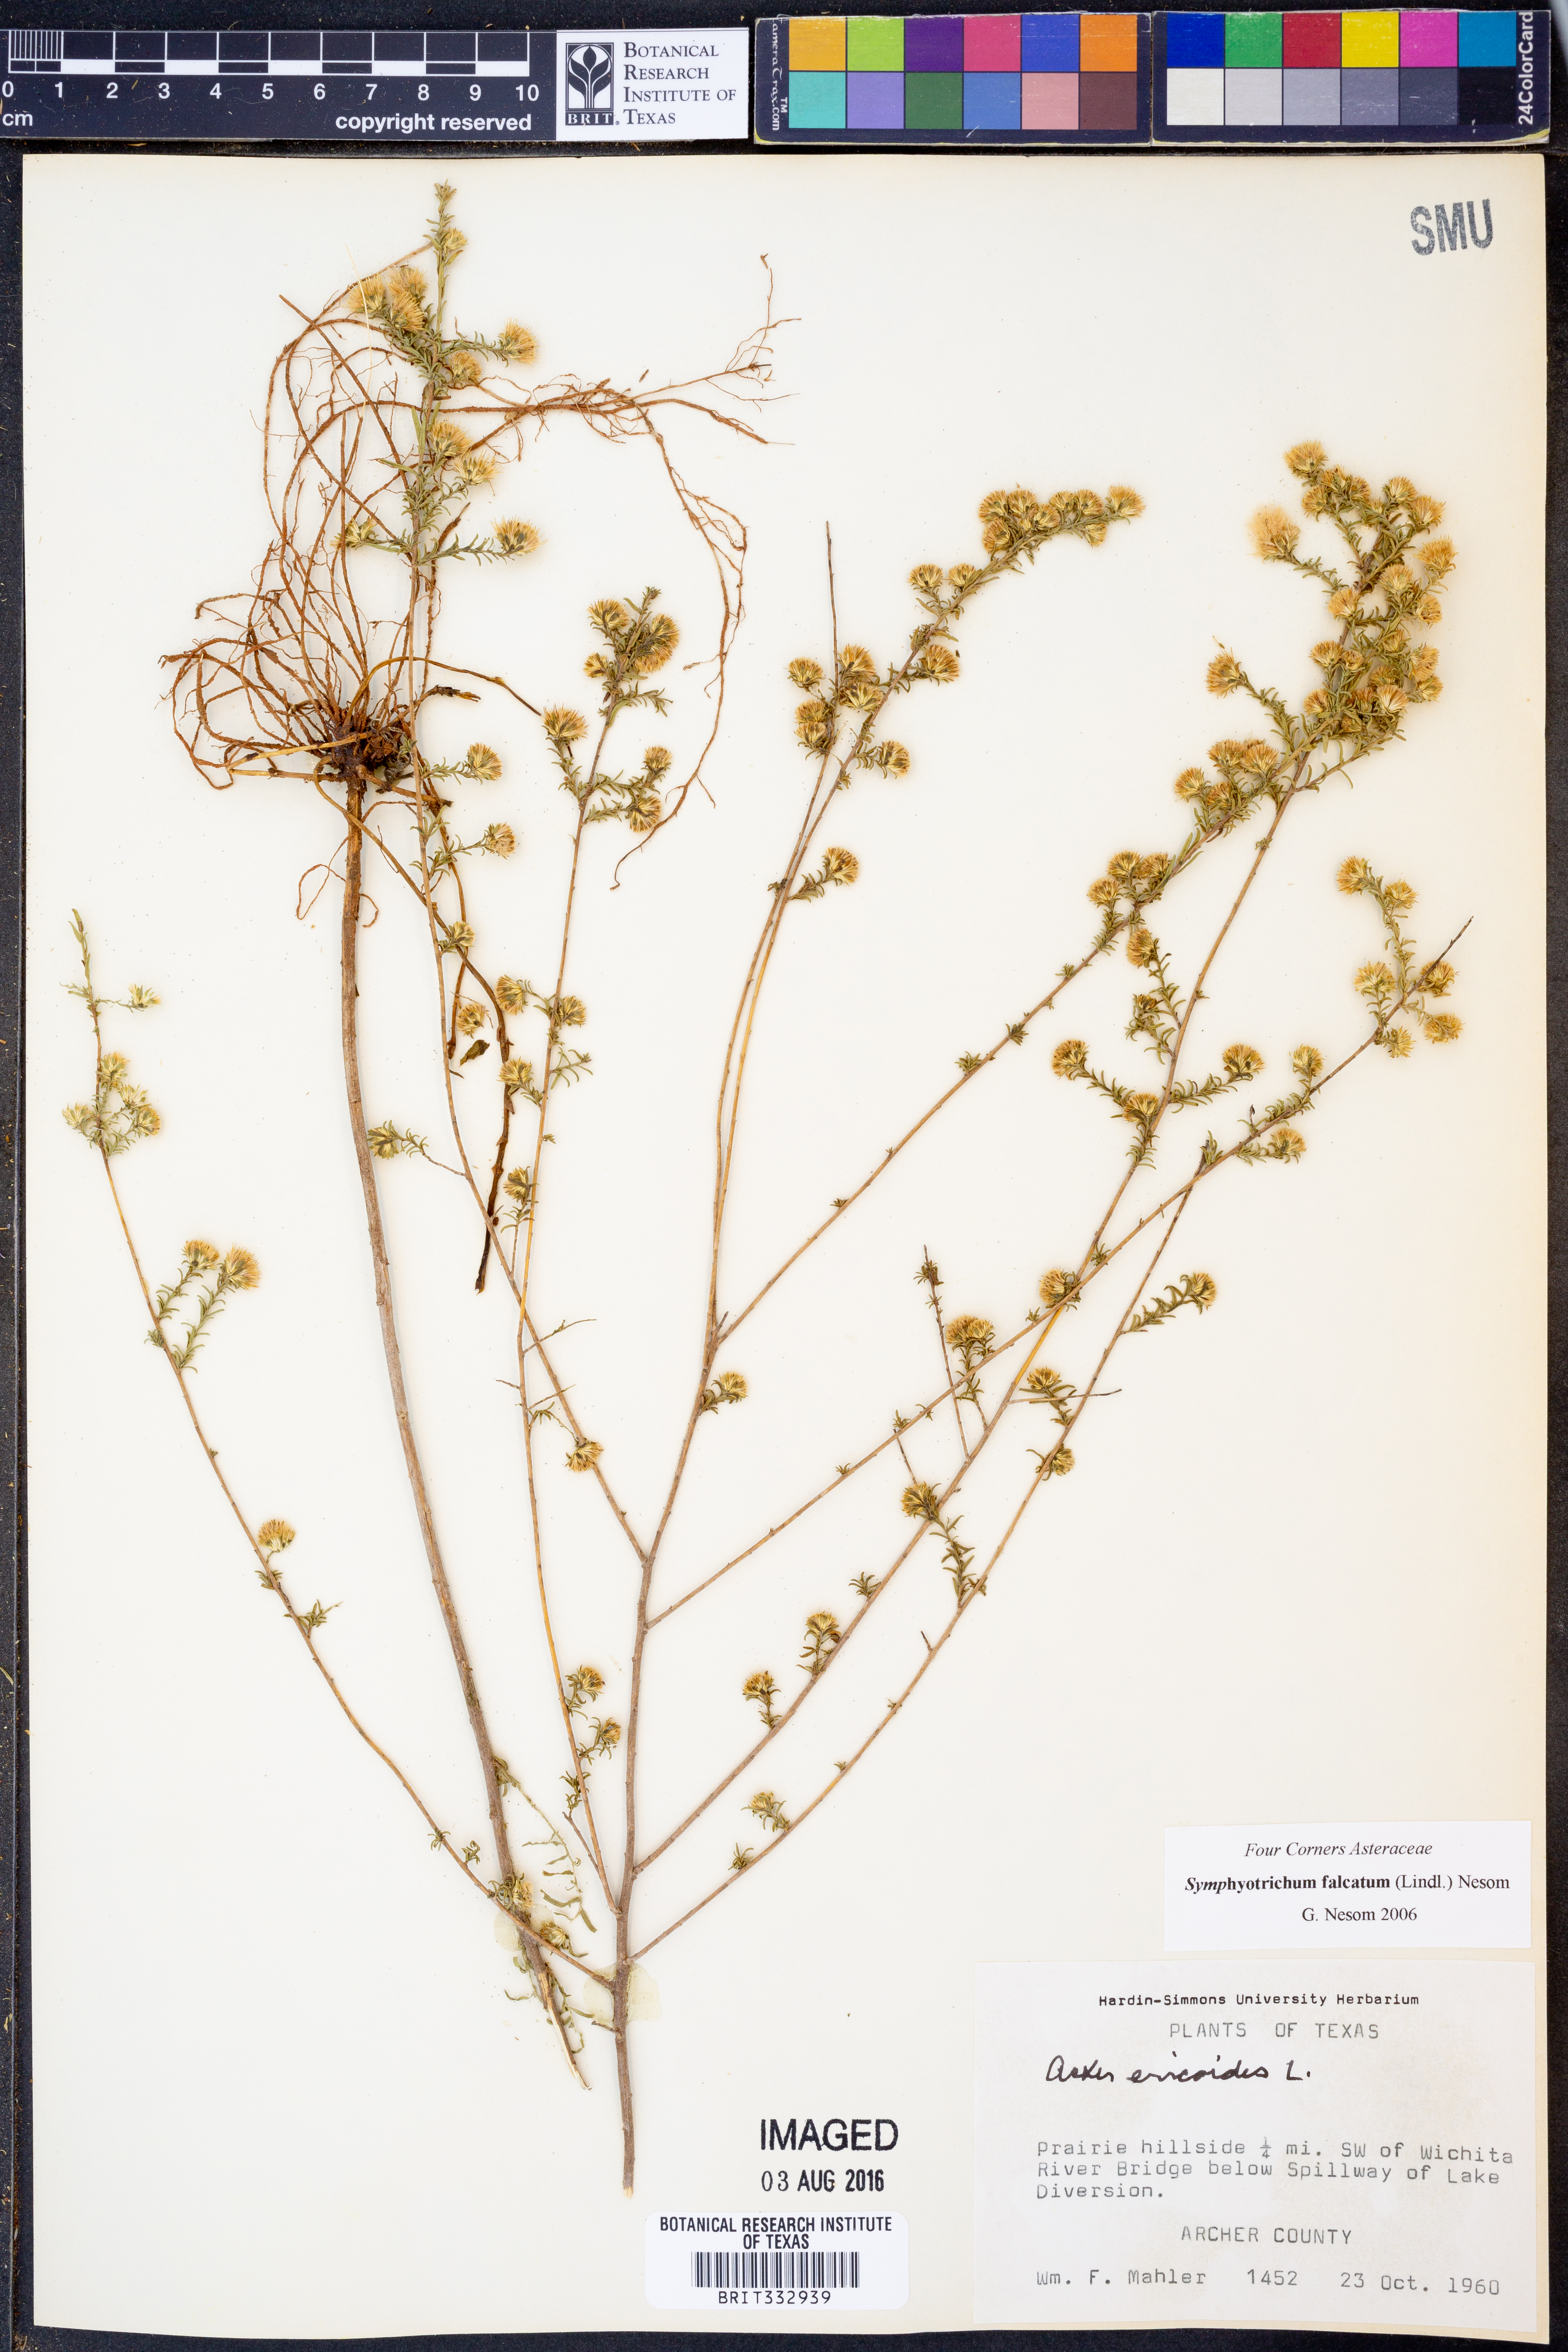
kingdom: Plantae
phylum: Tracheophyta
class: Magnoliopsida
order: Asterales
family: Asteraceae
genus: Symphyotrichum
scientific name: Symphyotrichum falcatum
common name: Creeping white prairie aster
